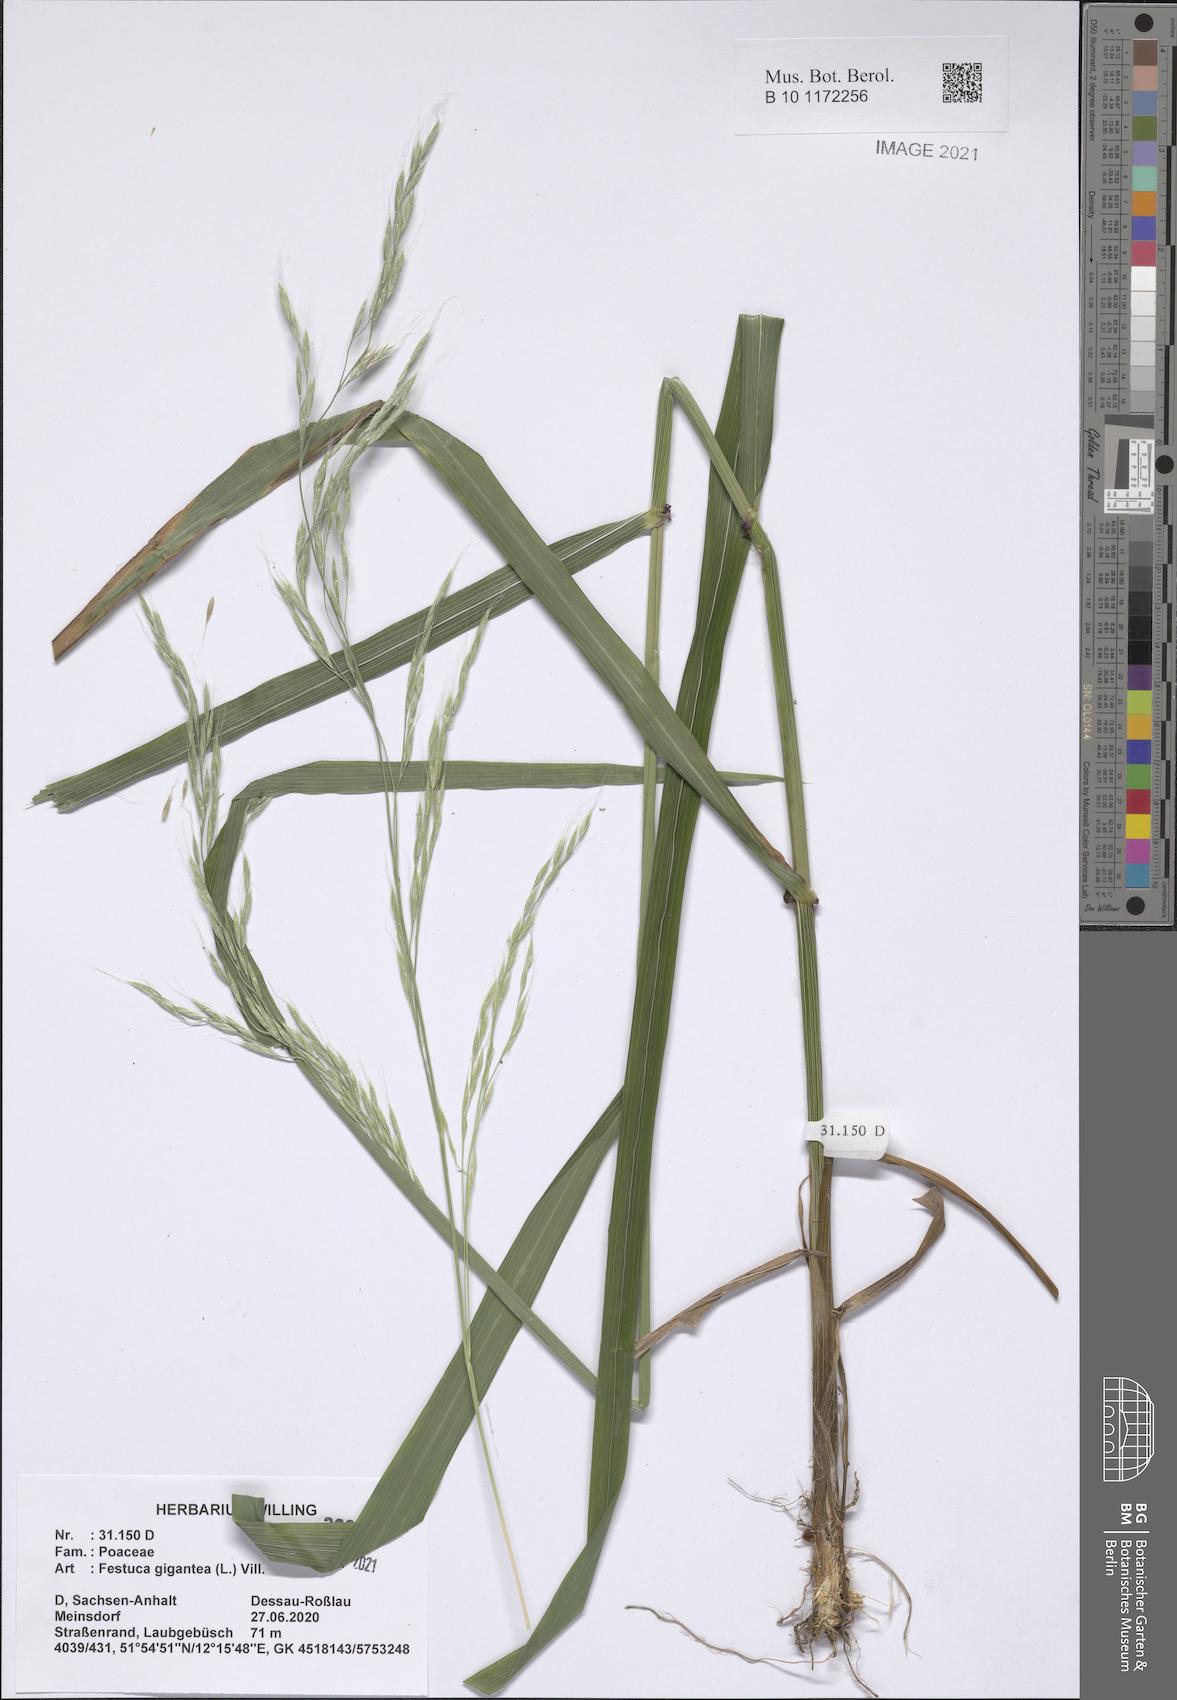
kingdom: Plantae
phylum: Tracheophyta
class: Liliopsida
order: Poales
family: Poaceae
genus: Lolium
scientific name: Lolium giganteum
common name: Giant fescue
